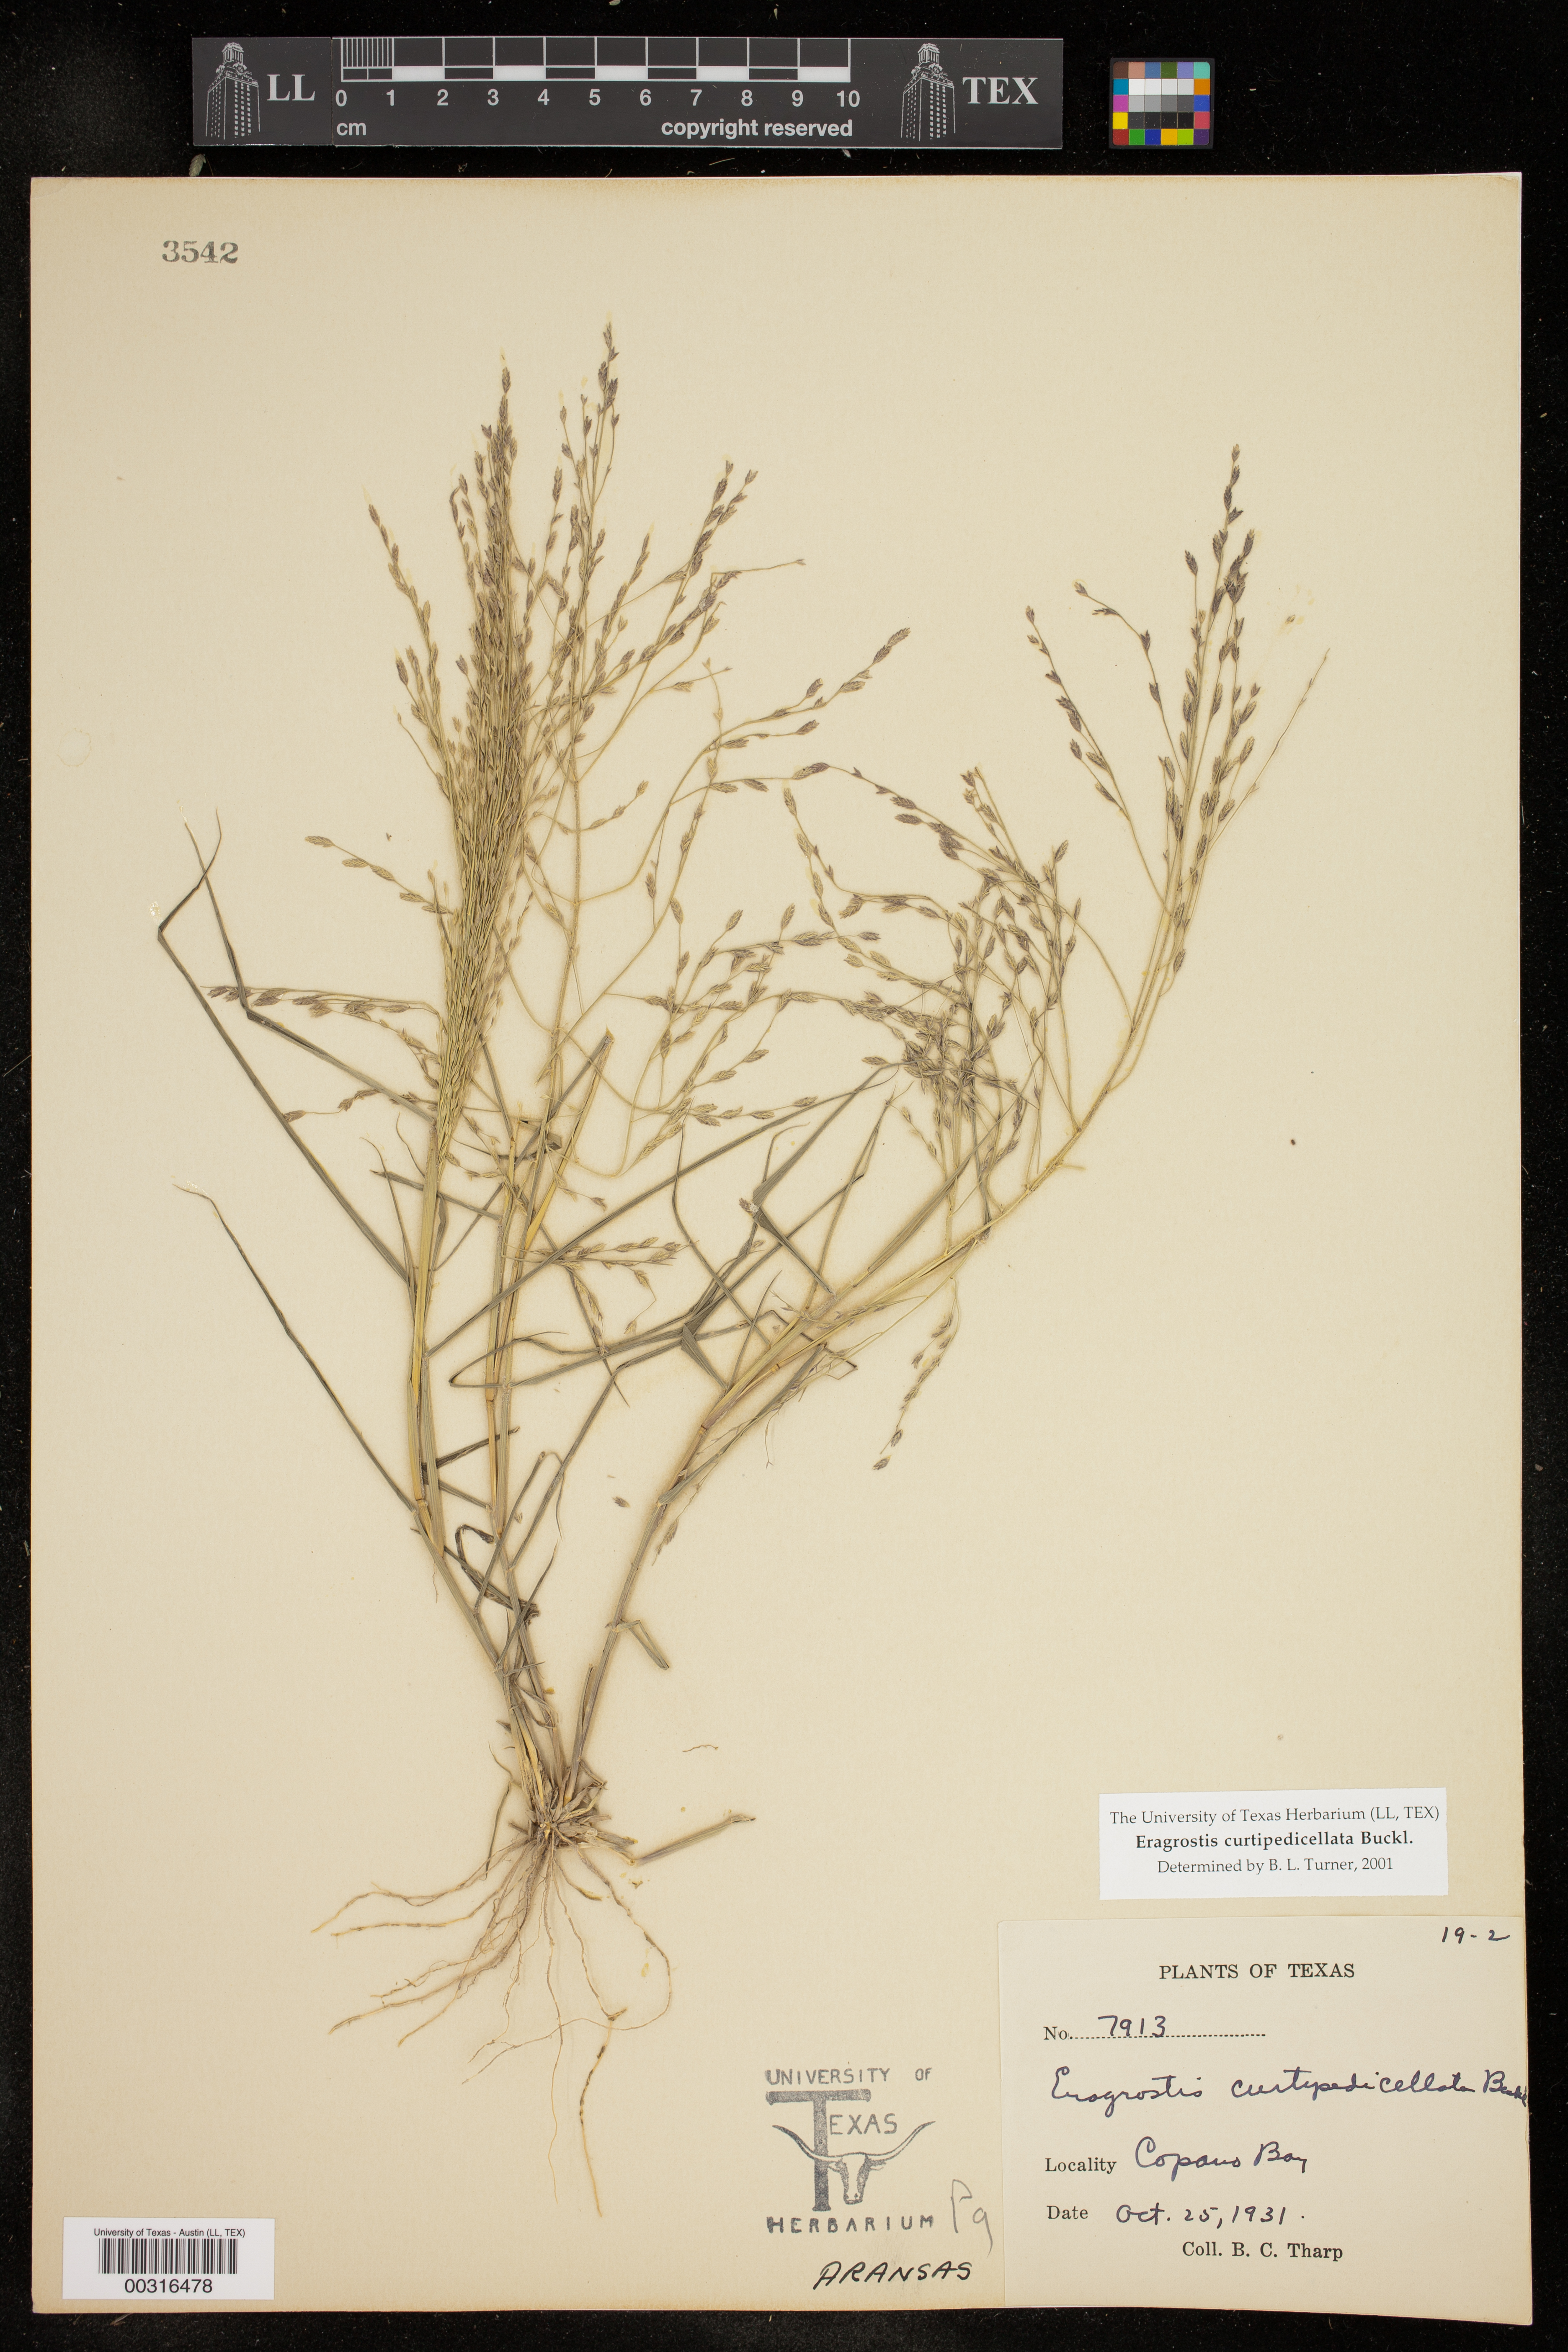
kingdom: Plantae
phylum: Tracheophyta
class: Liliopsida
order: Poales
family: Poaceae
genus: Eragrostis
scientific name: Eragrostis curtipedicellata
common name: Gummy love grass
